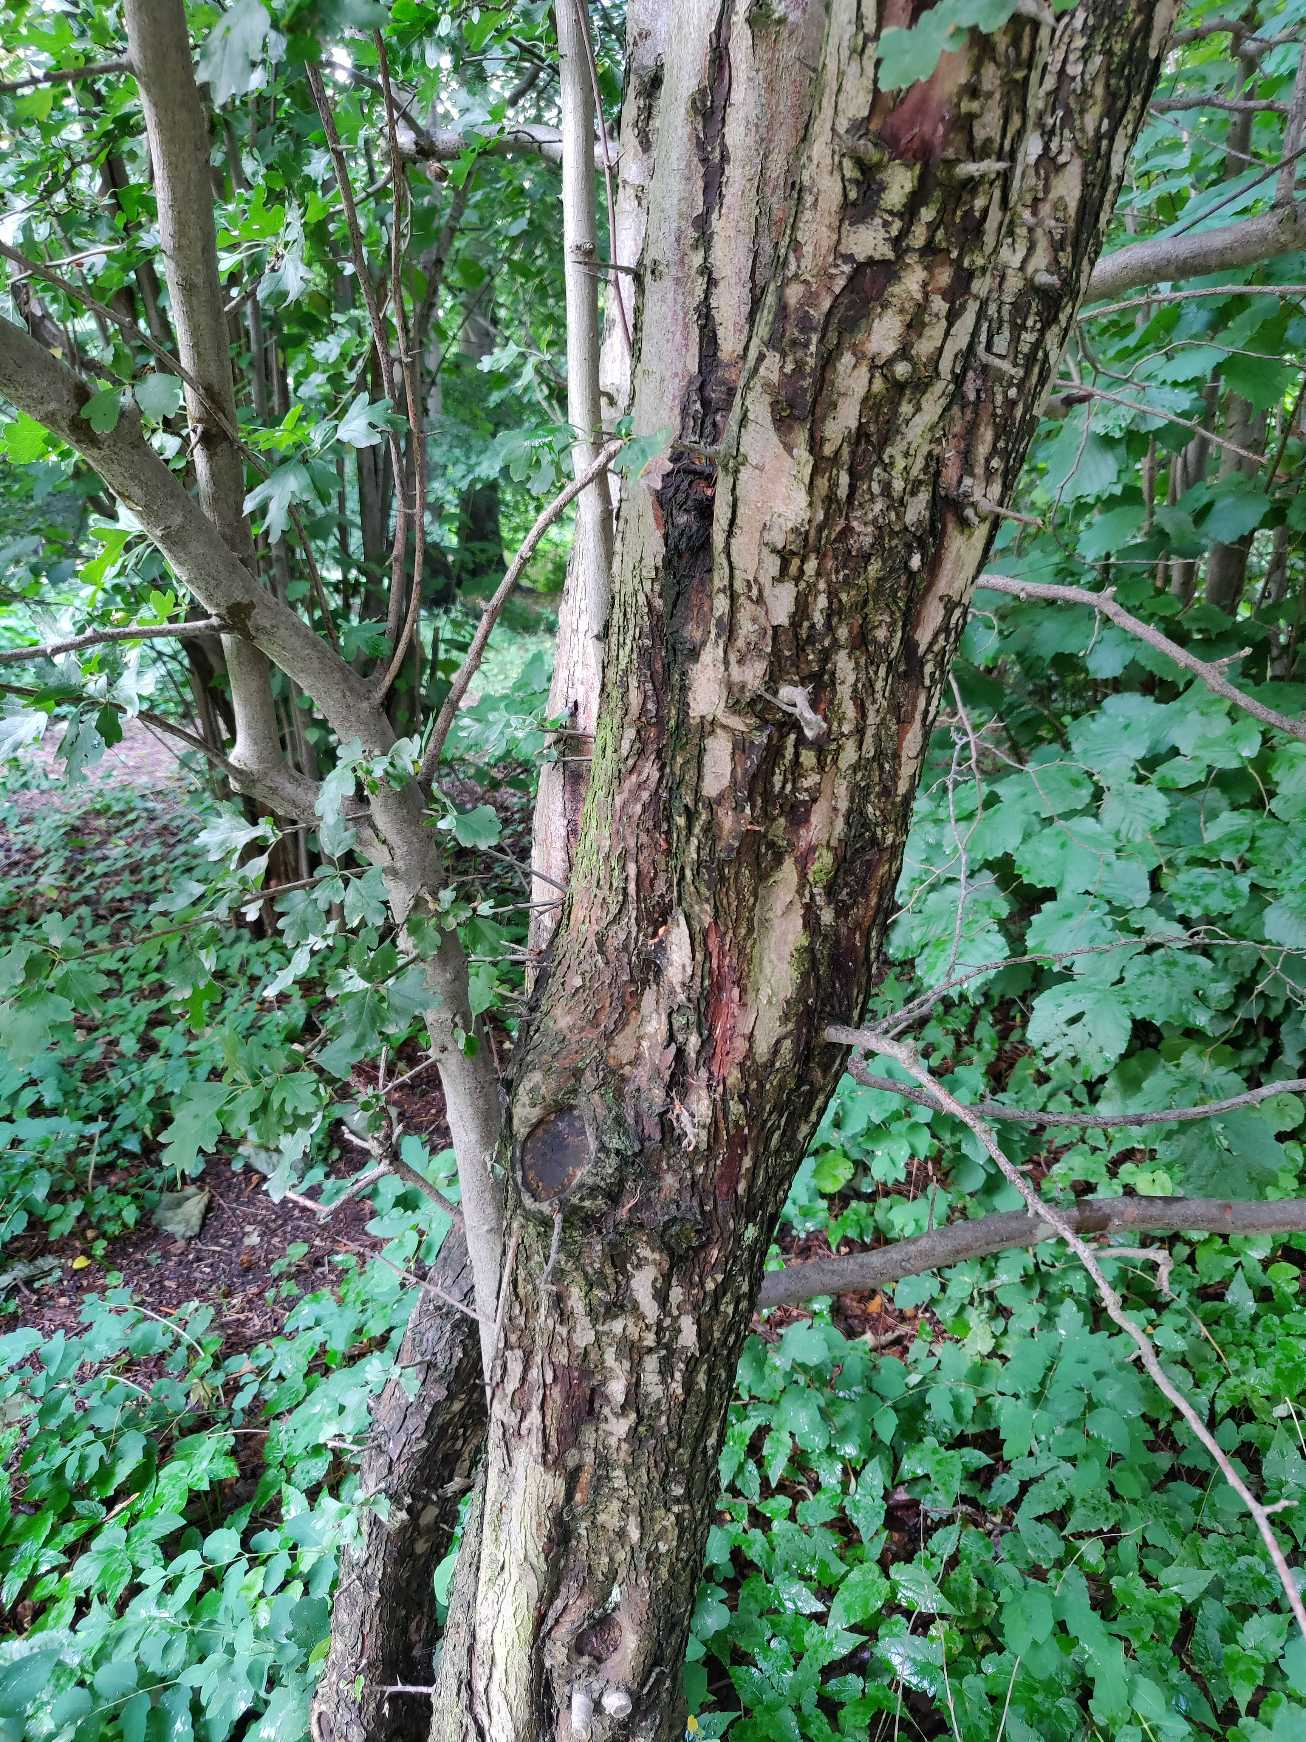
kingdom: Plantae
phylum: Tracheophyta
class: Magnoliopsida
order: Rosales
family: Rosaceae
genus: Crataegus
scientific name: Crataegus monogyna
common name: Engriflet hvidtjørn
